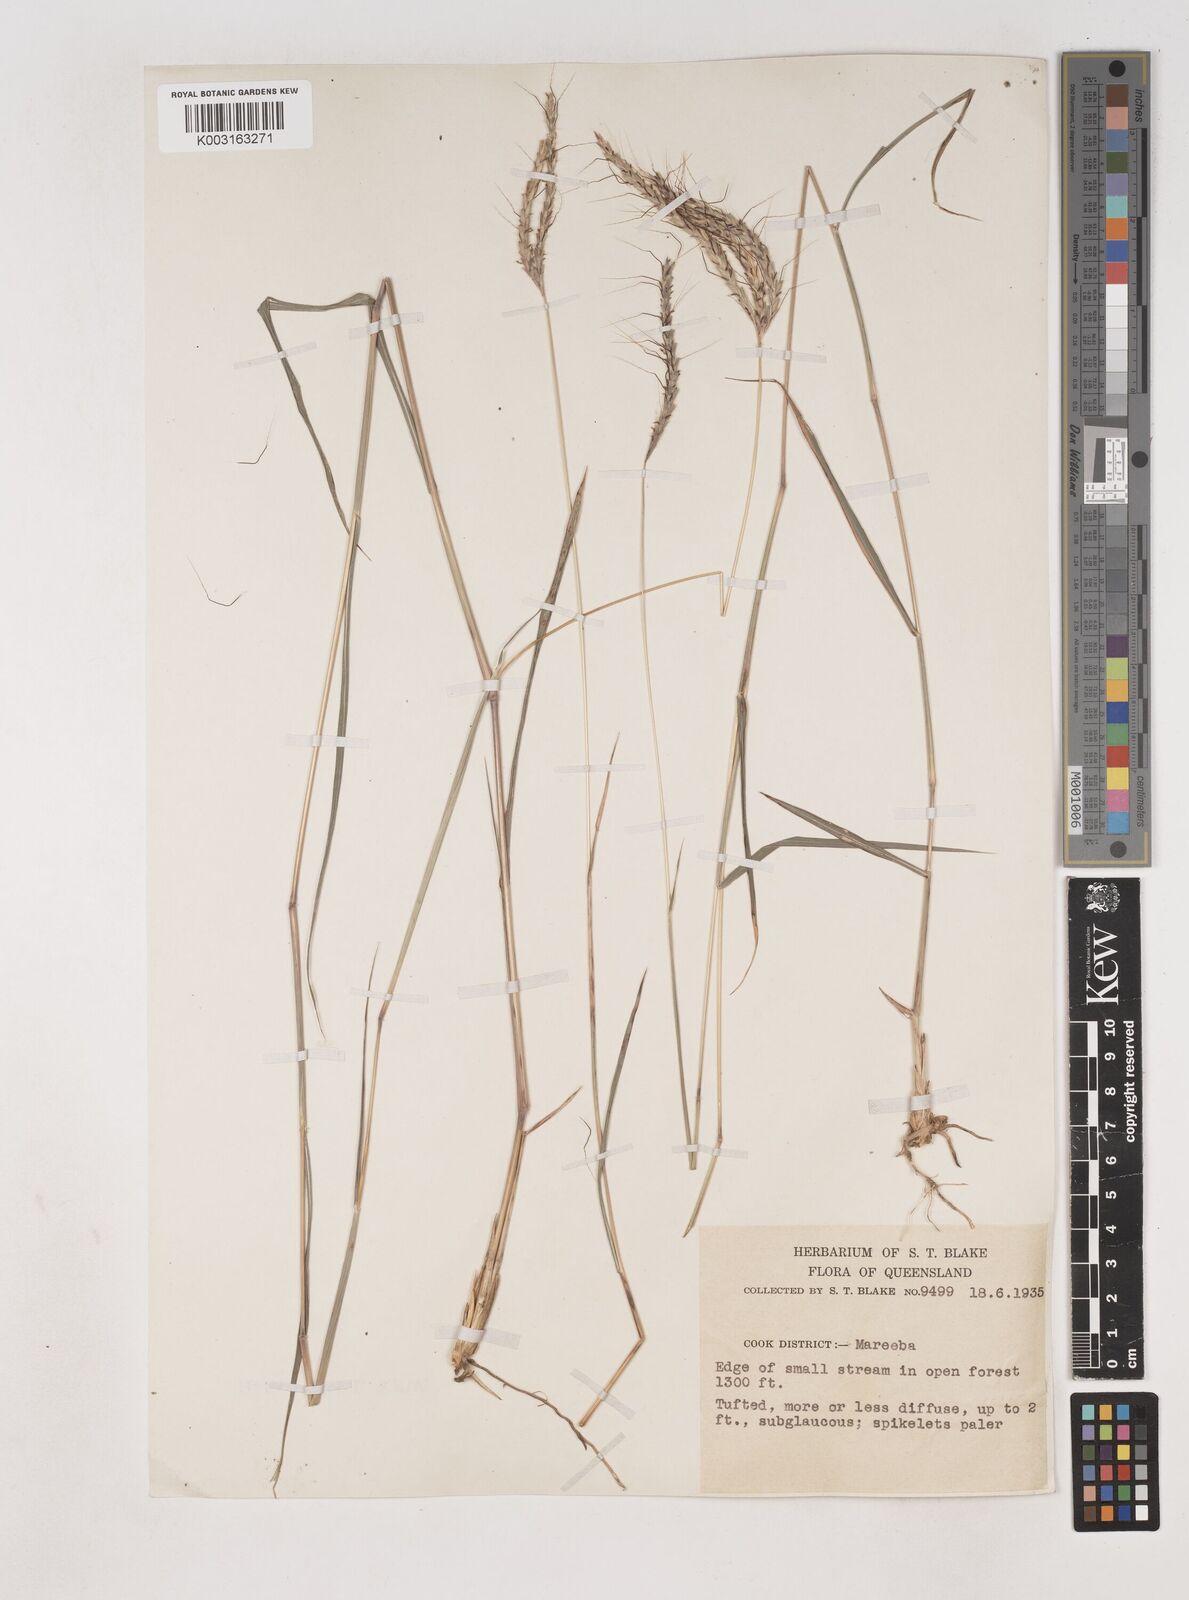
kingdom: Plantae
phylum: Tracheophyta
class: Liliopsida
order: Poales
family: Poaceae
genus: Dichanthium
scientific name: Dichanthium fecundum
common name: Bundle-bundle
